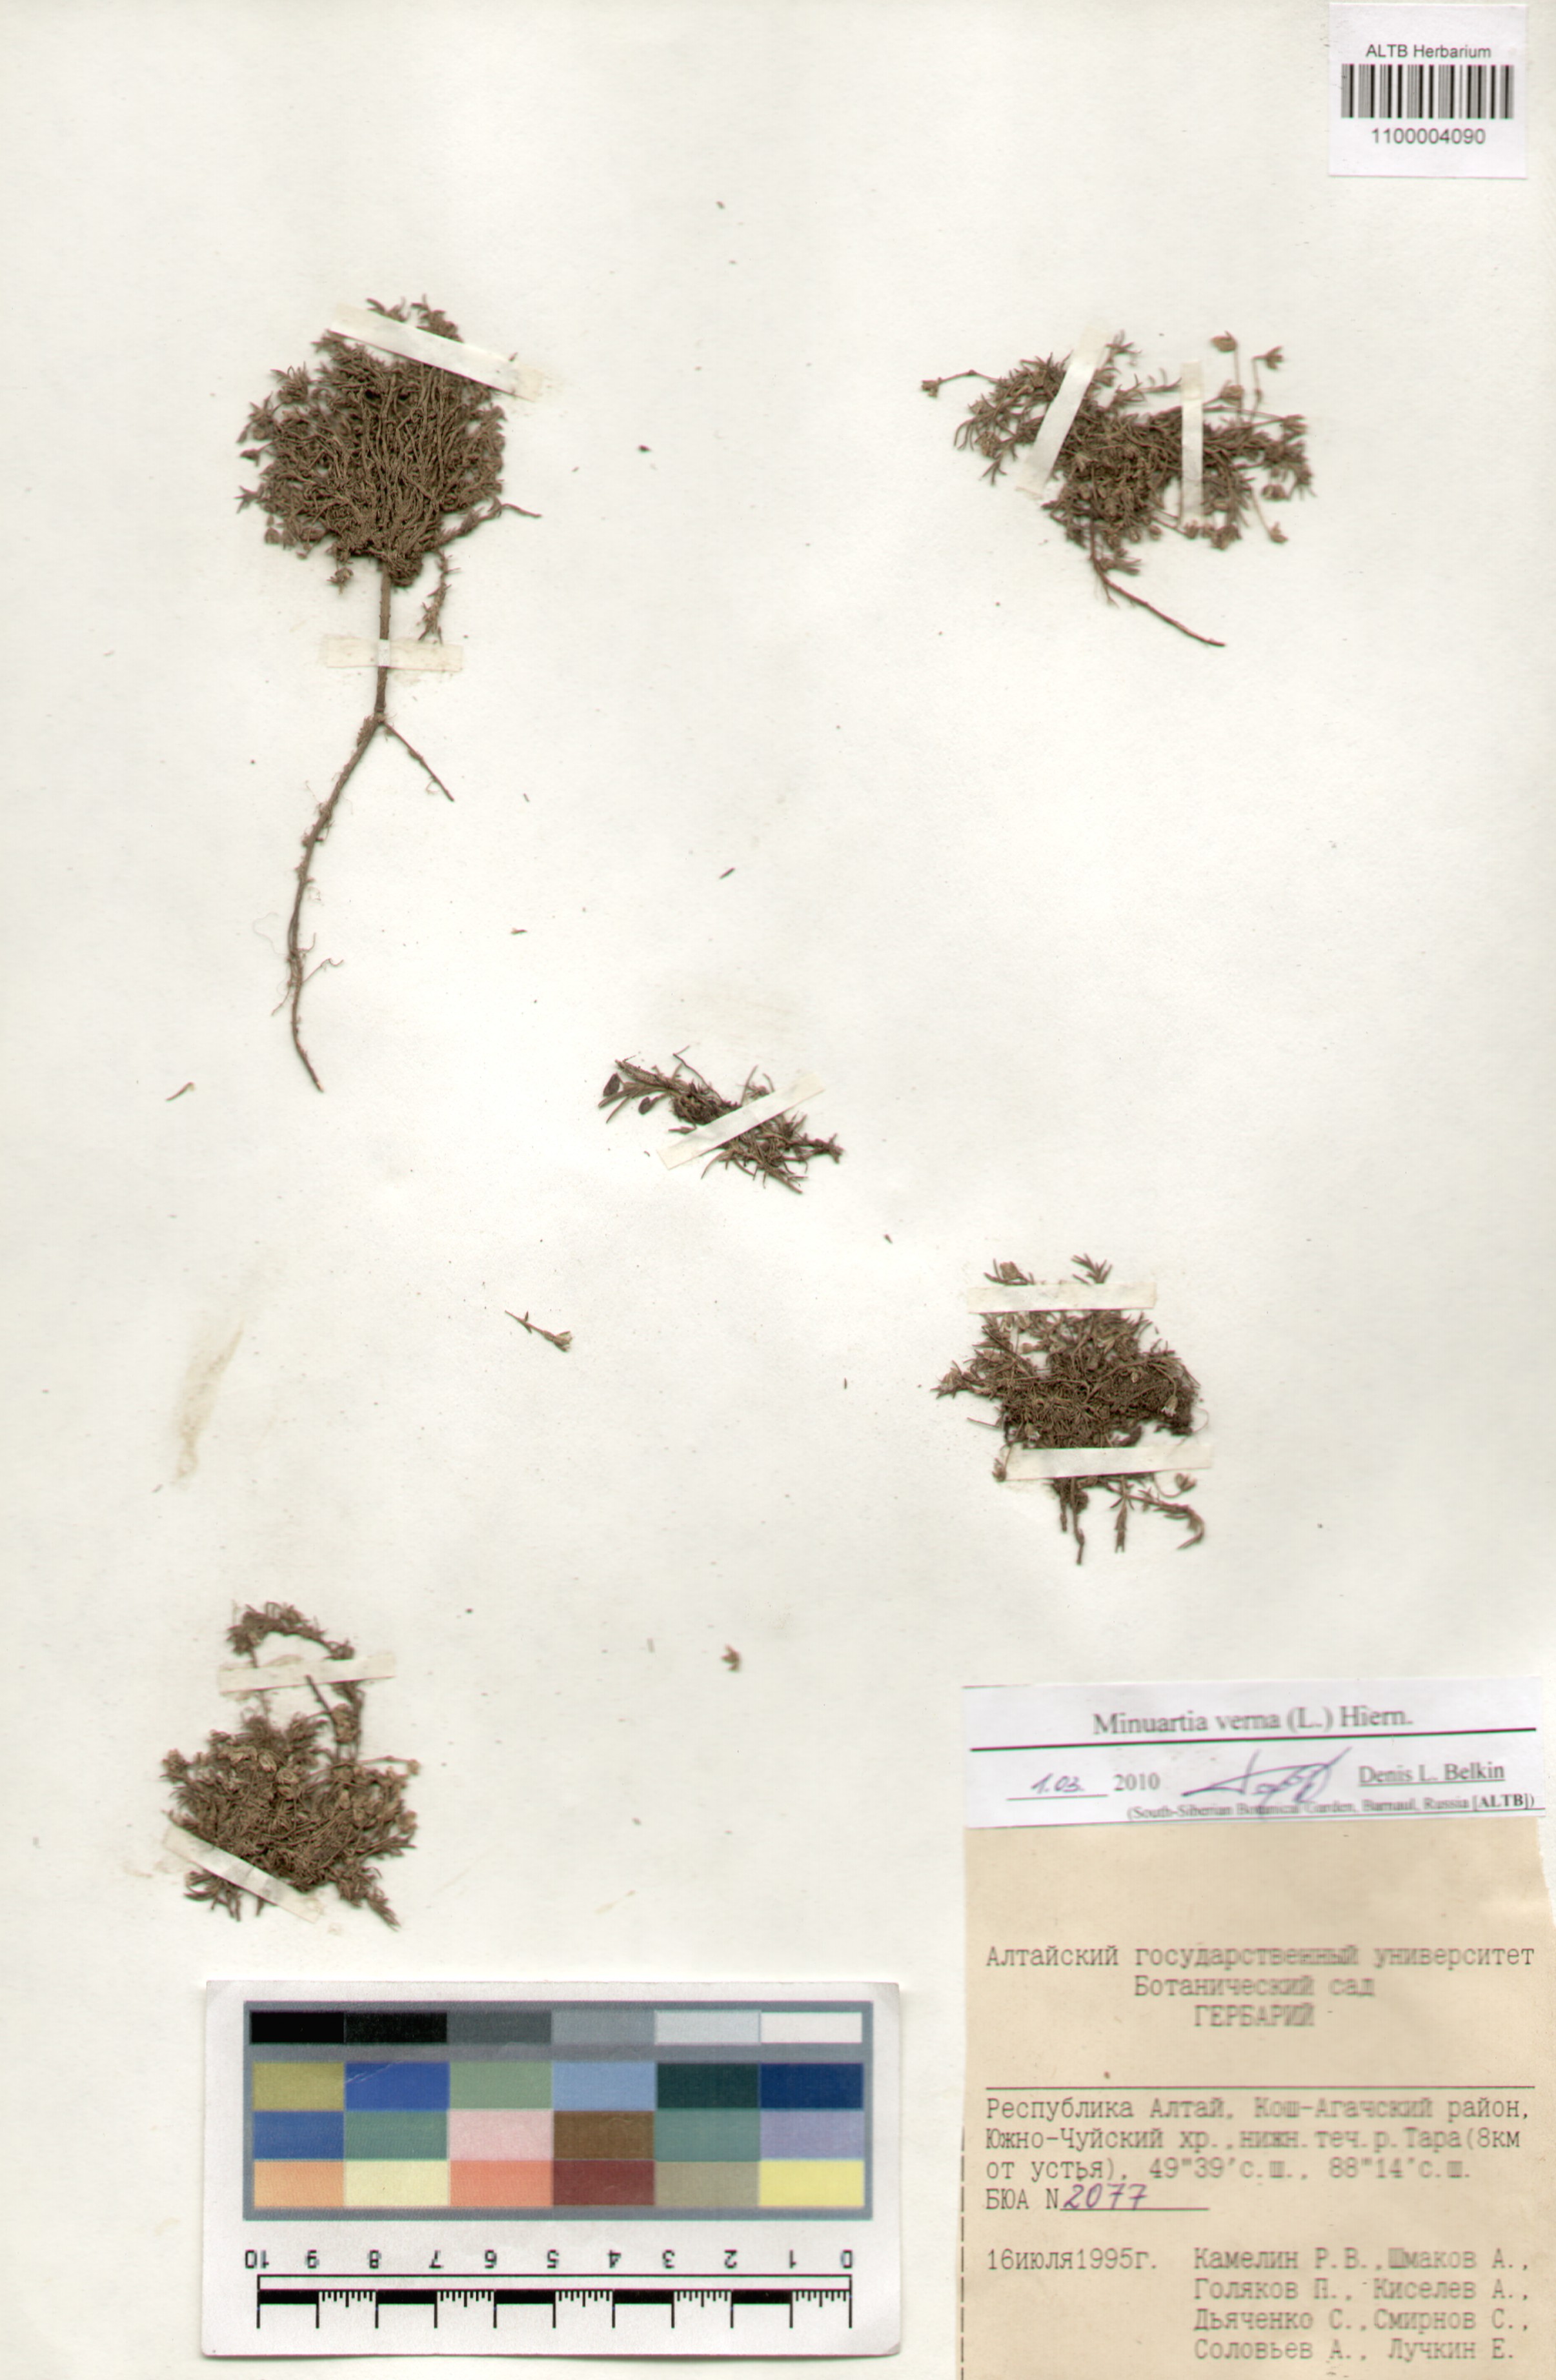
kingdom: Plantae
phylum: Tracheophyta
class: Magnoliopsida
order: Caryophyllales
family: Caryophyllaceae
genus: Sabulina
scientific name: Sabulina verna
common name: Spring sandwort
